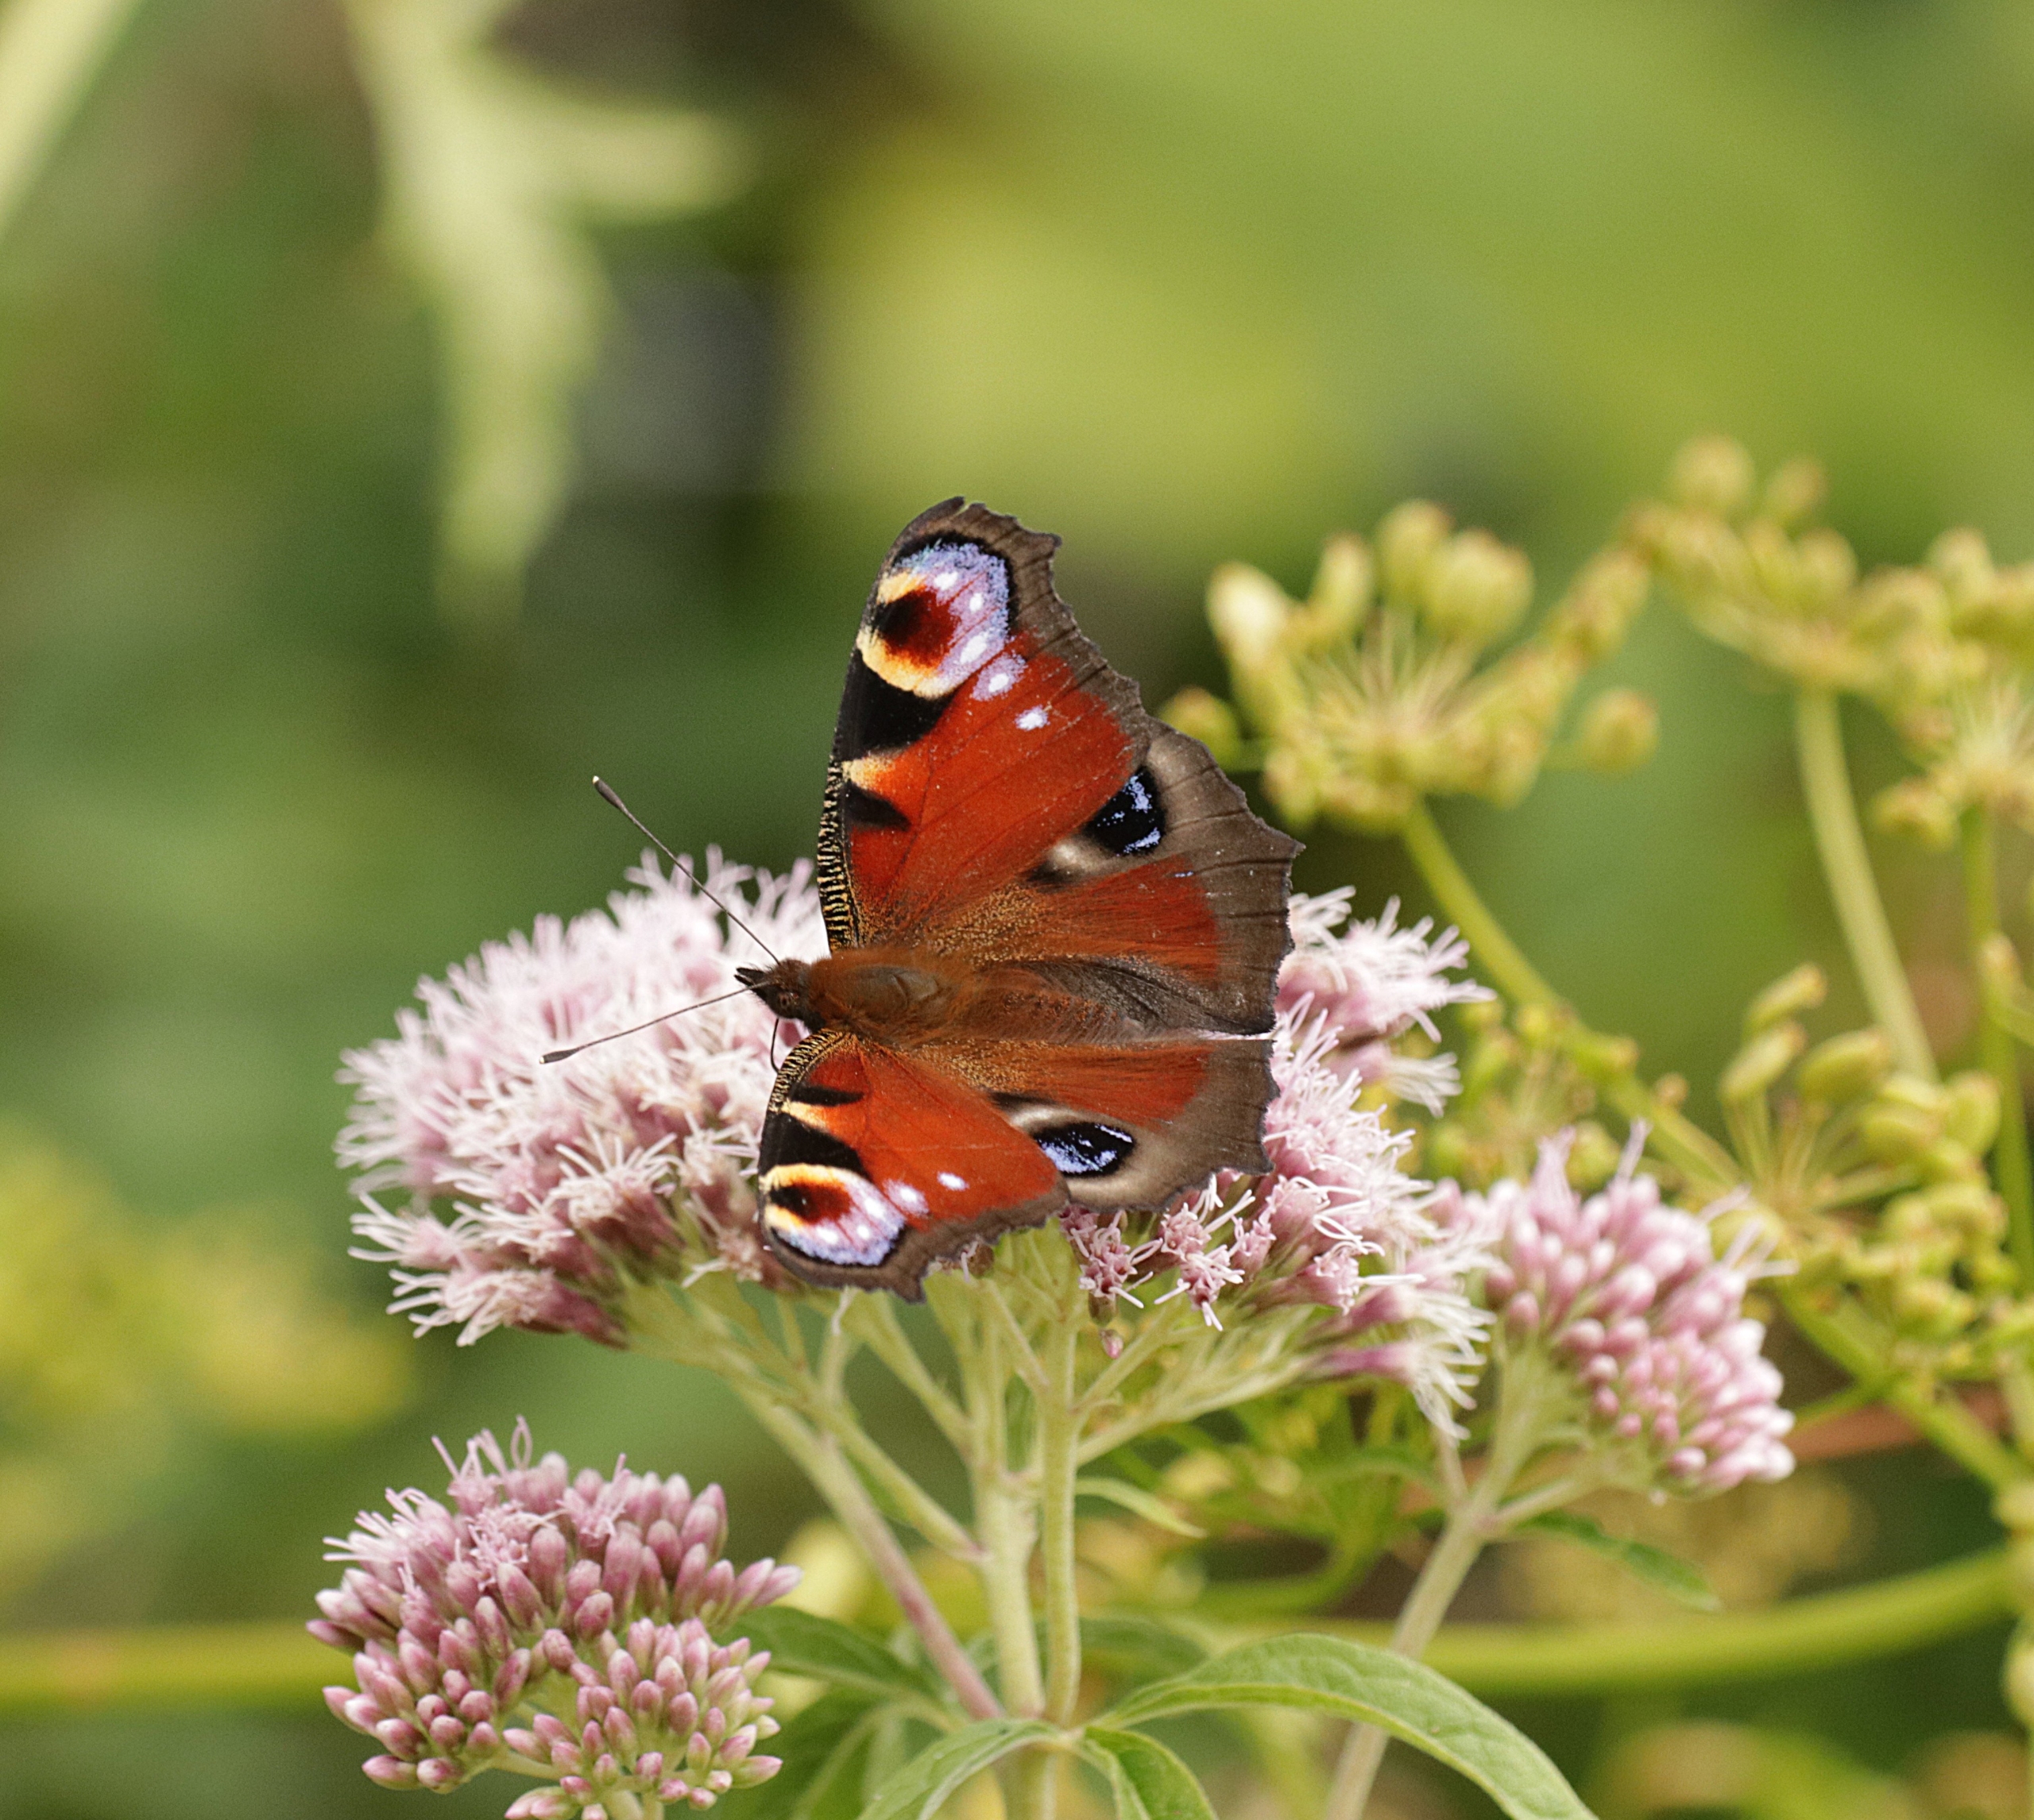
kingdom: Animalia
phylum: Arthropoda
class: Insecta
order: Lepidoptera
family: Nymphalidae
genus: Aglais
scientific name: Aglais io
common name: Dagpåfugleøje
